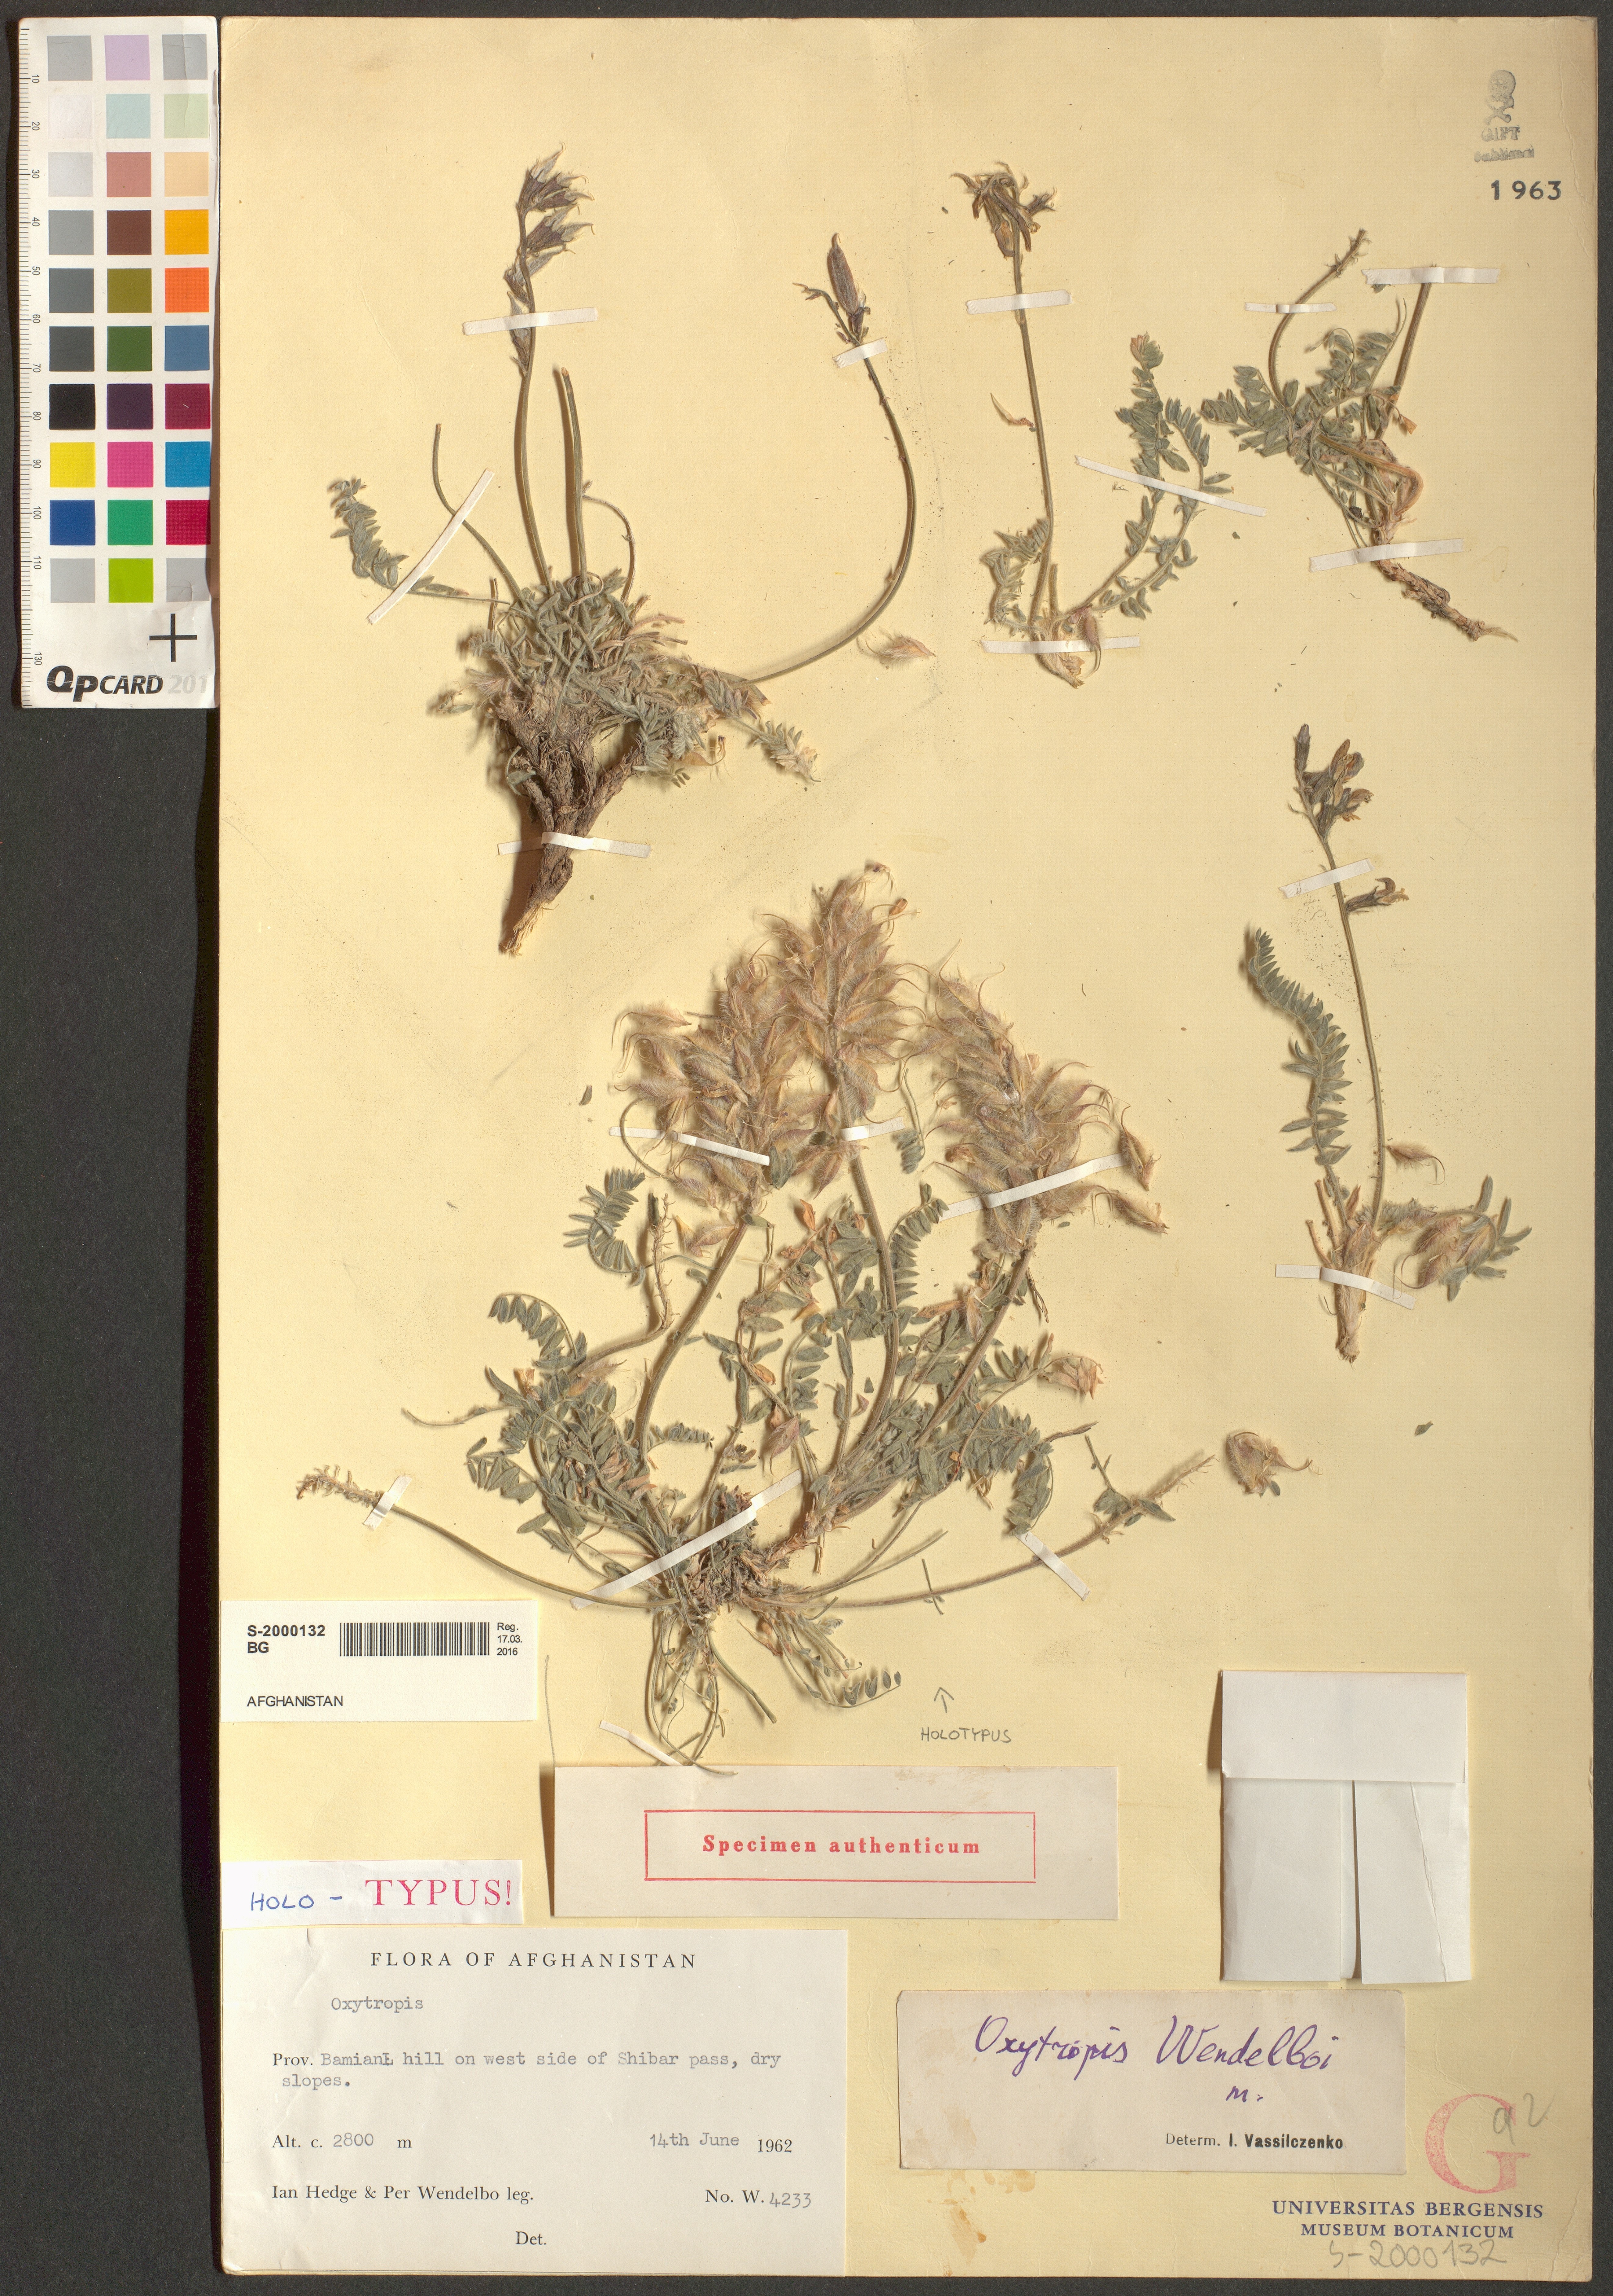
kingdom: Plantae
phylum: Tracheophyta
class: Magnoliopsida
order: Fabales
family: Fabaceae
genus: Astragalus
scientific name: Astragalus singarensis
